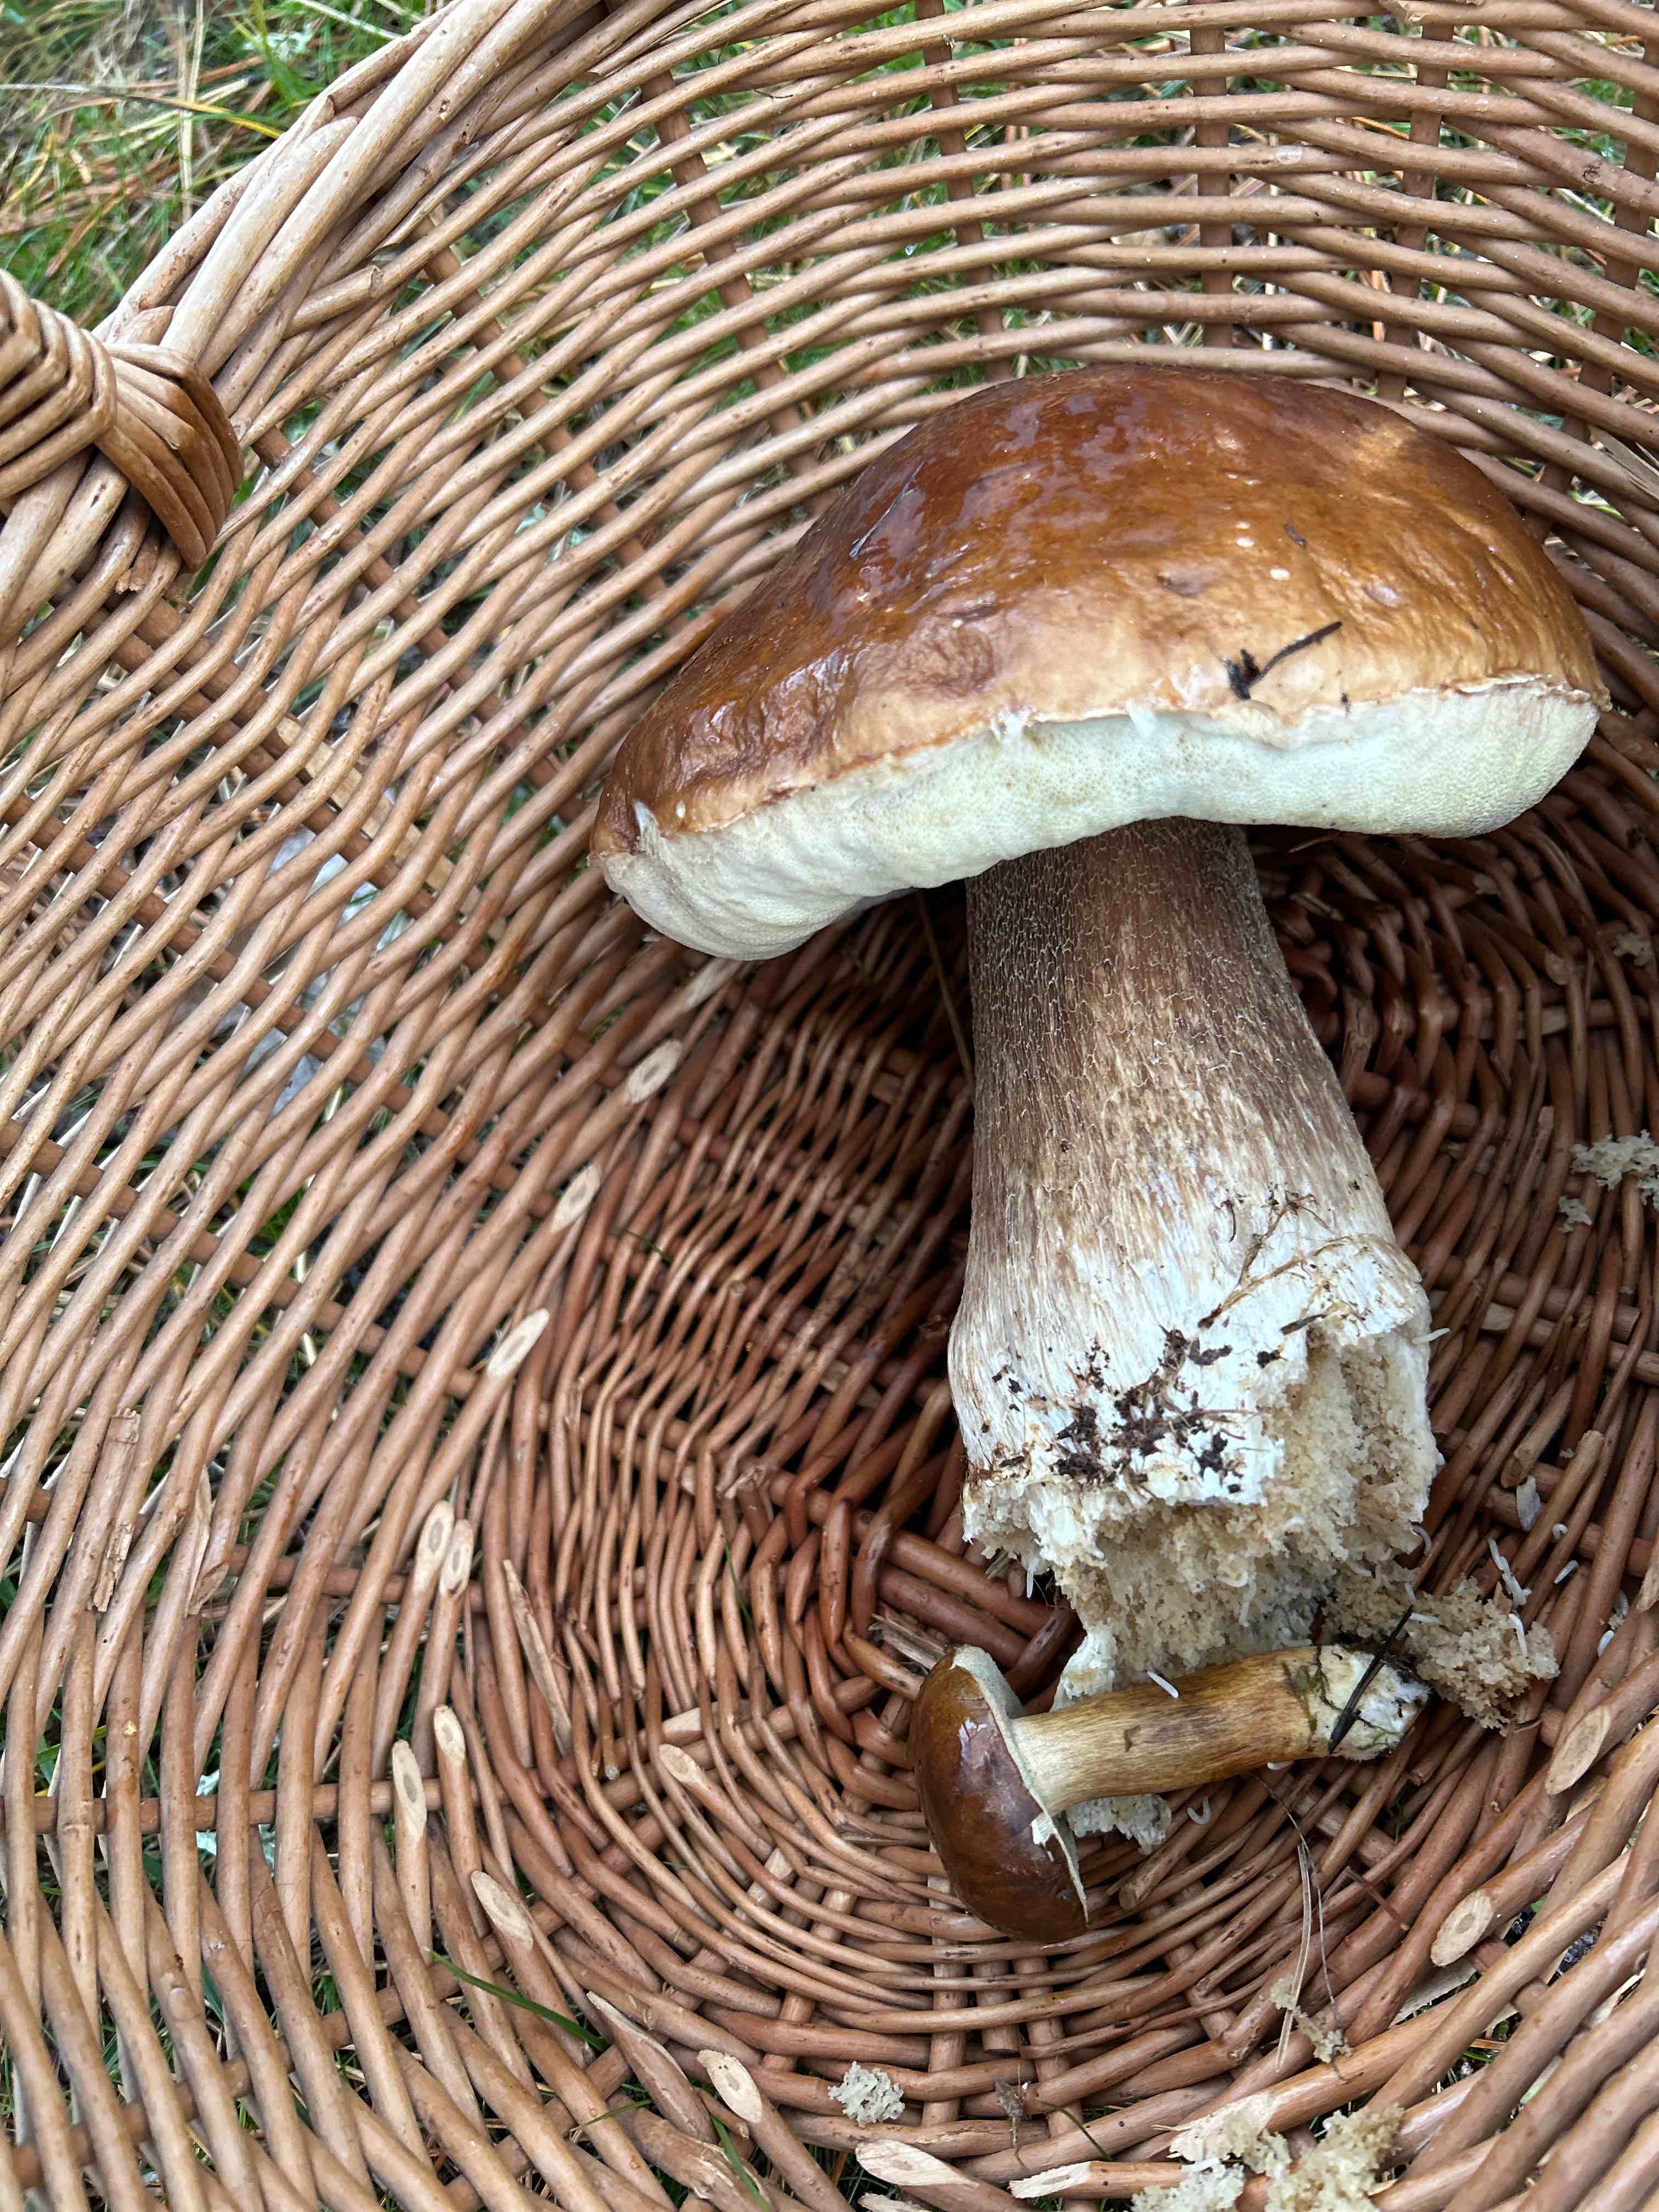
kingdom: Fungi
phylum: Basidiomycota
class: Agaricomycetes
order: Boletales
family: Boletaceae
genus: Boletus
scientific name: Boletus edulis
